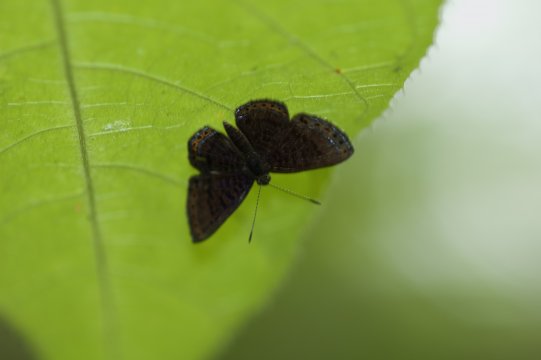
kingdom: Animalia
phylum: Arthropoda
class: Insecta
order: Lepidoptera
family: Riodinidae
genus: Detritivora
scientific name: Detritivora
